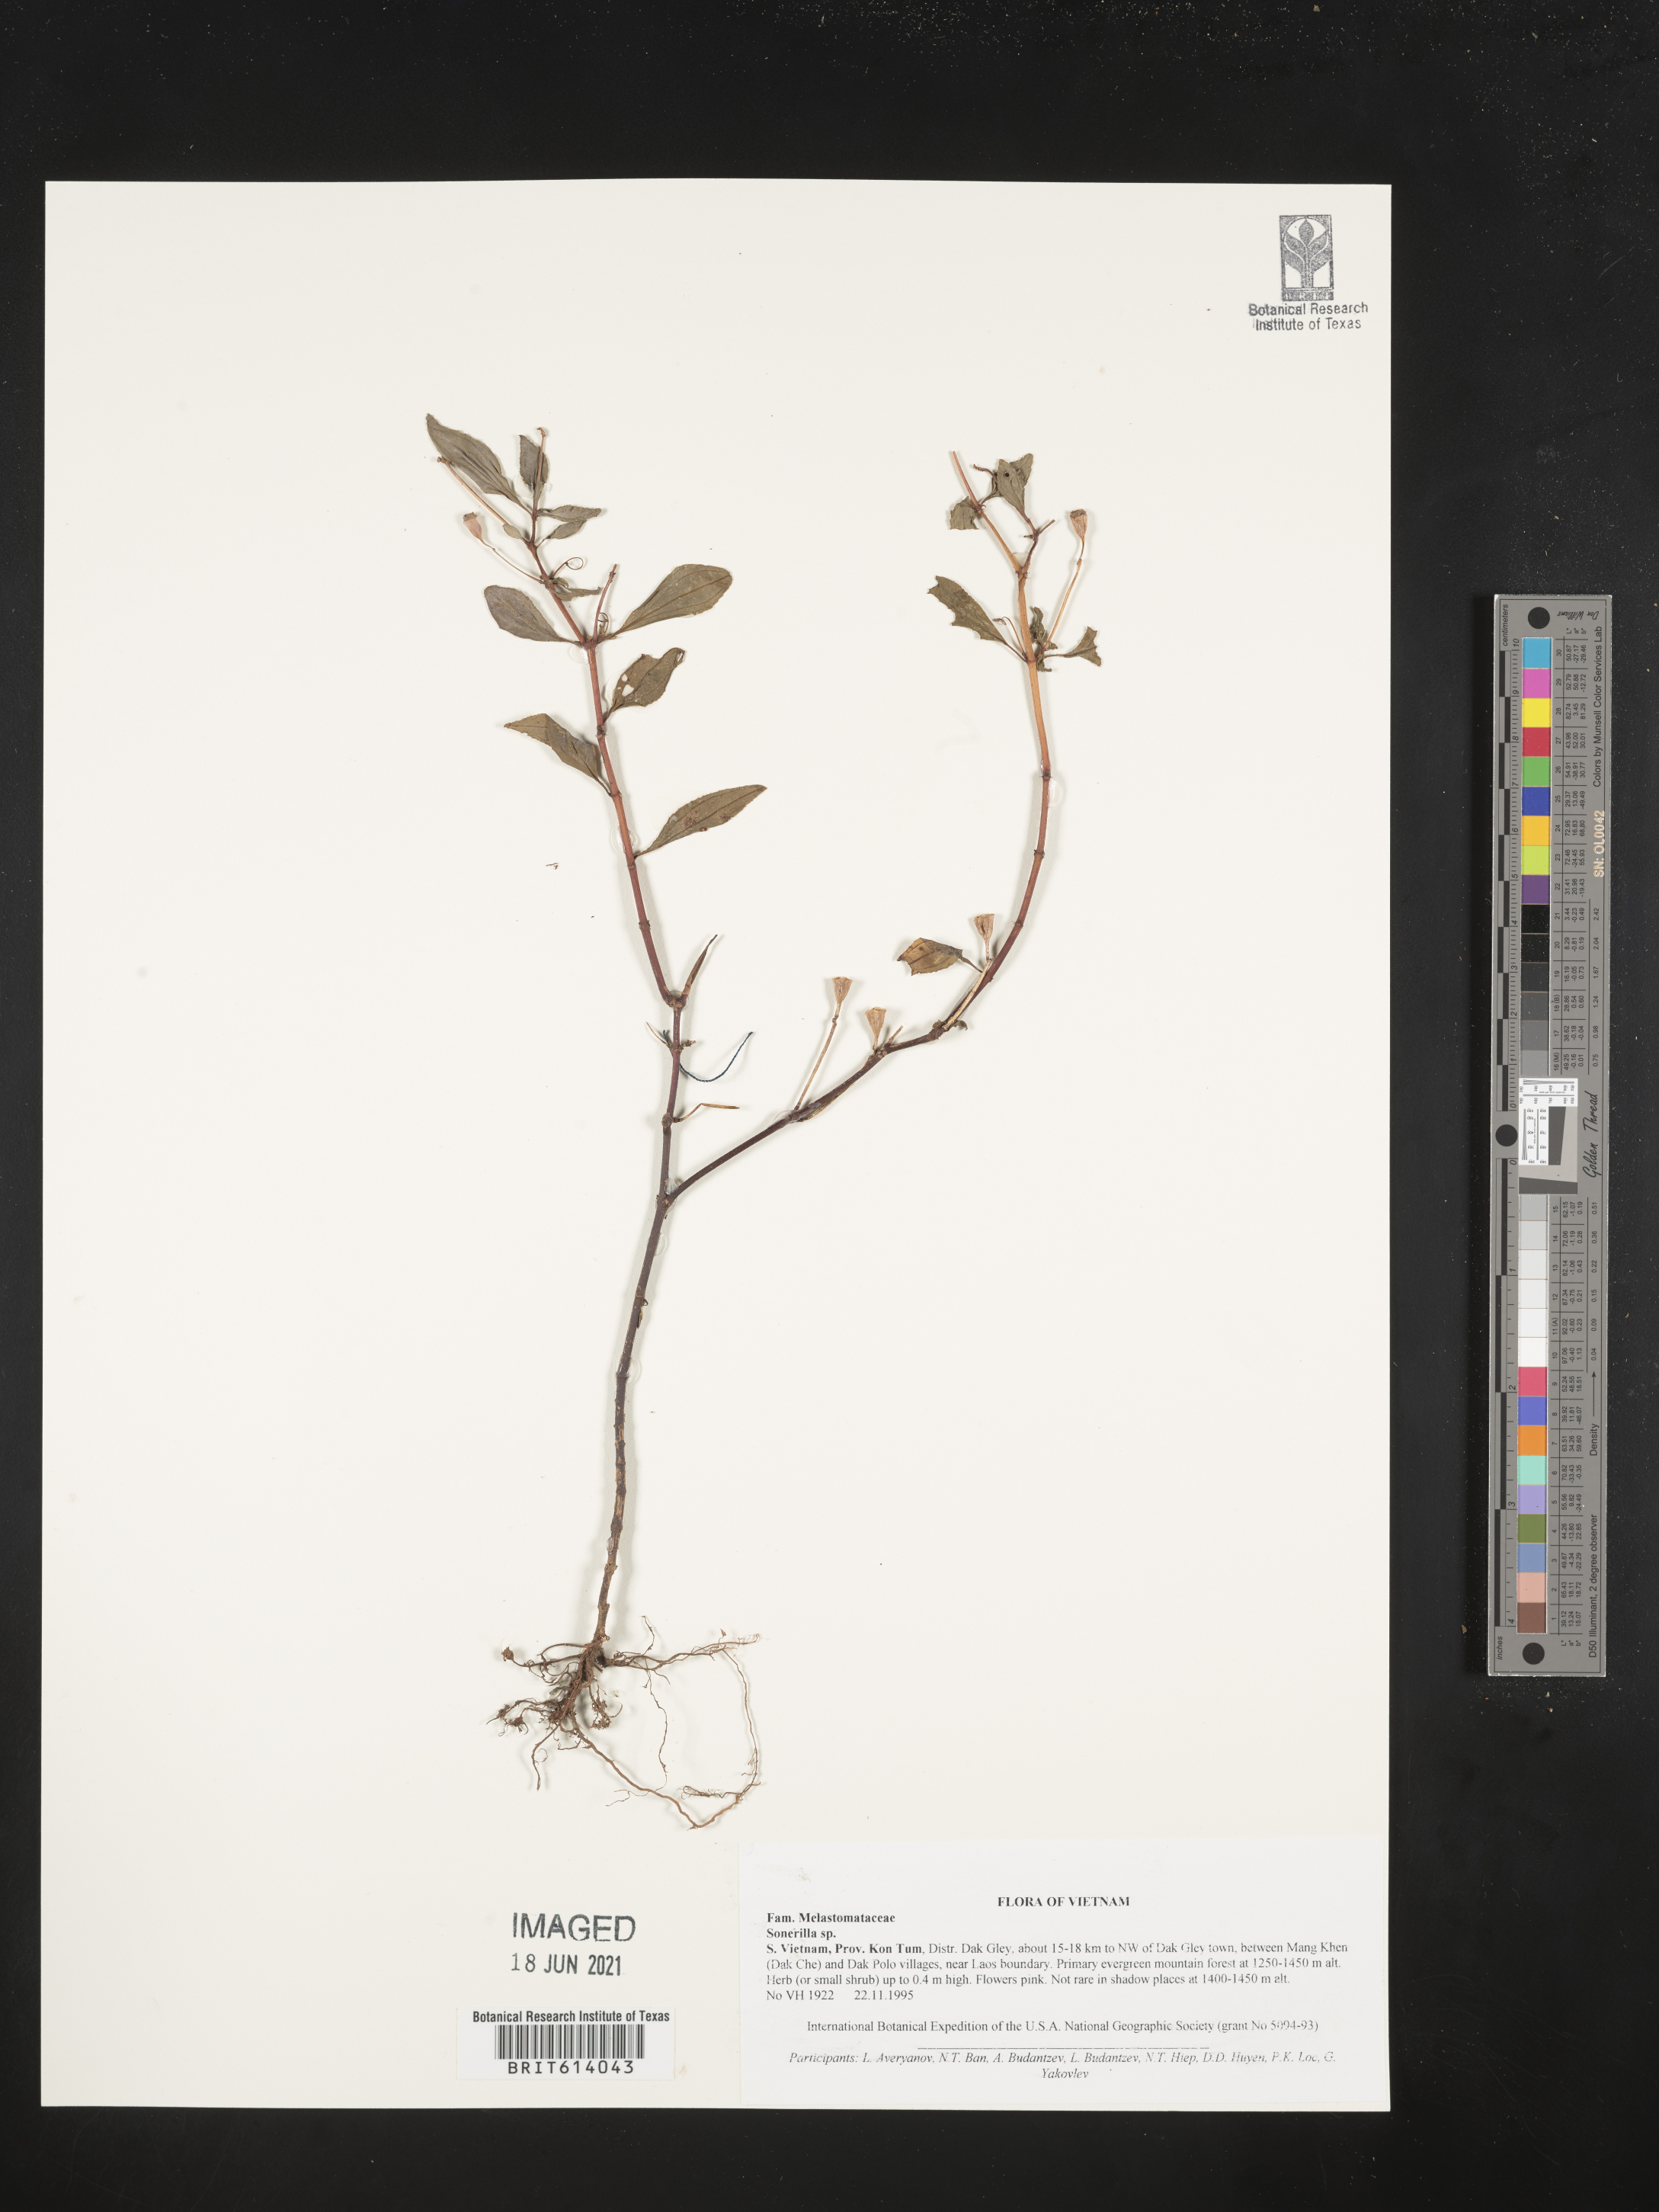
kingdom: Plantae
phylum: Tracheophyta
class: Magnoliopsida
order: Myrtales
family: Melastomataceae
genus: Sonerila
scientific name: Sonerila
